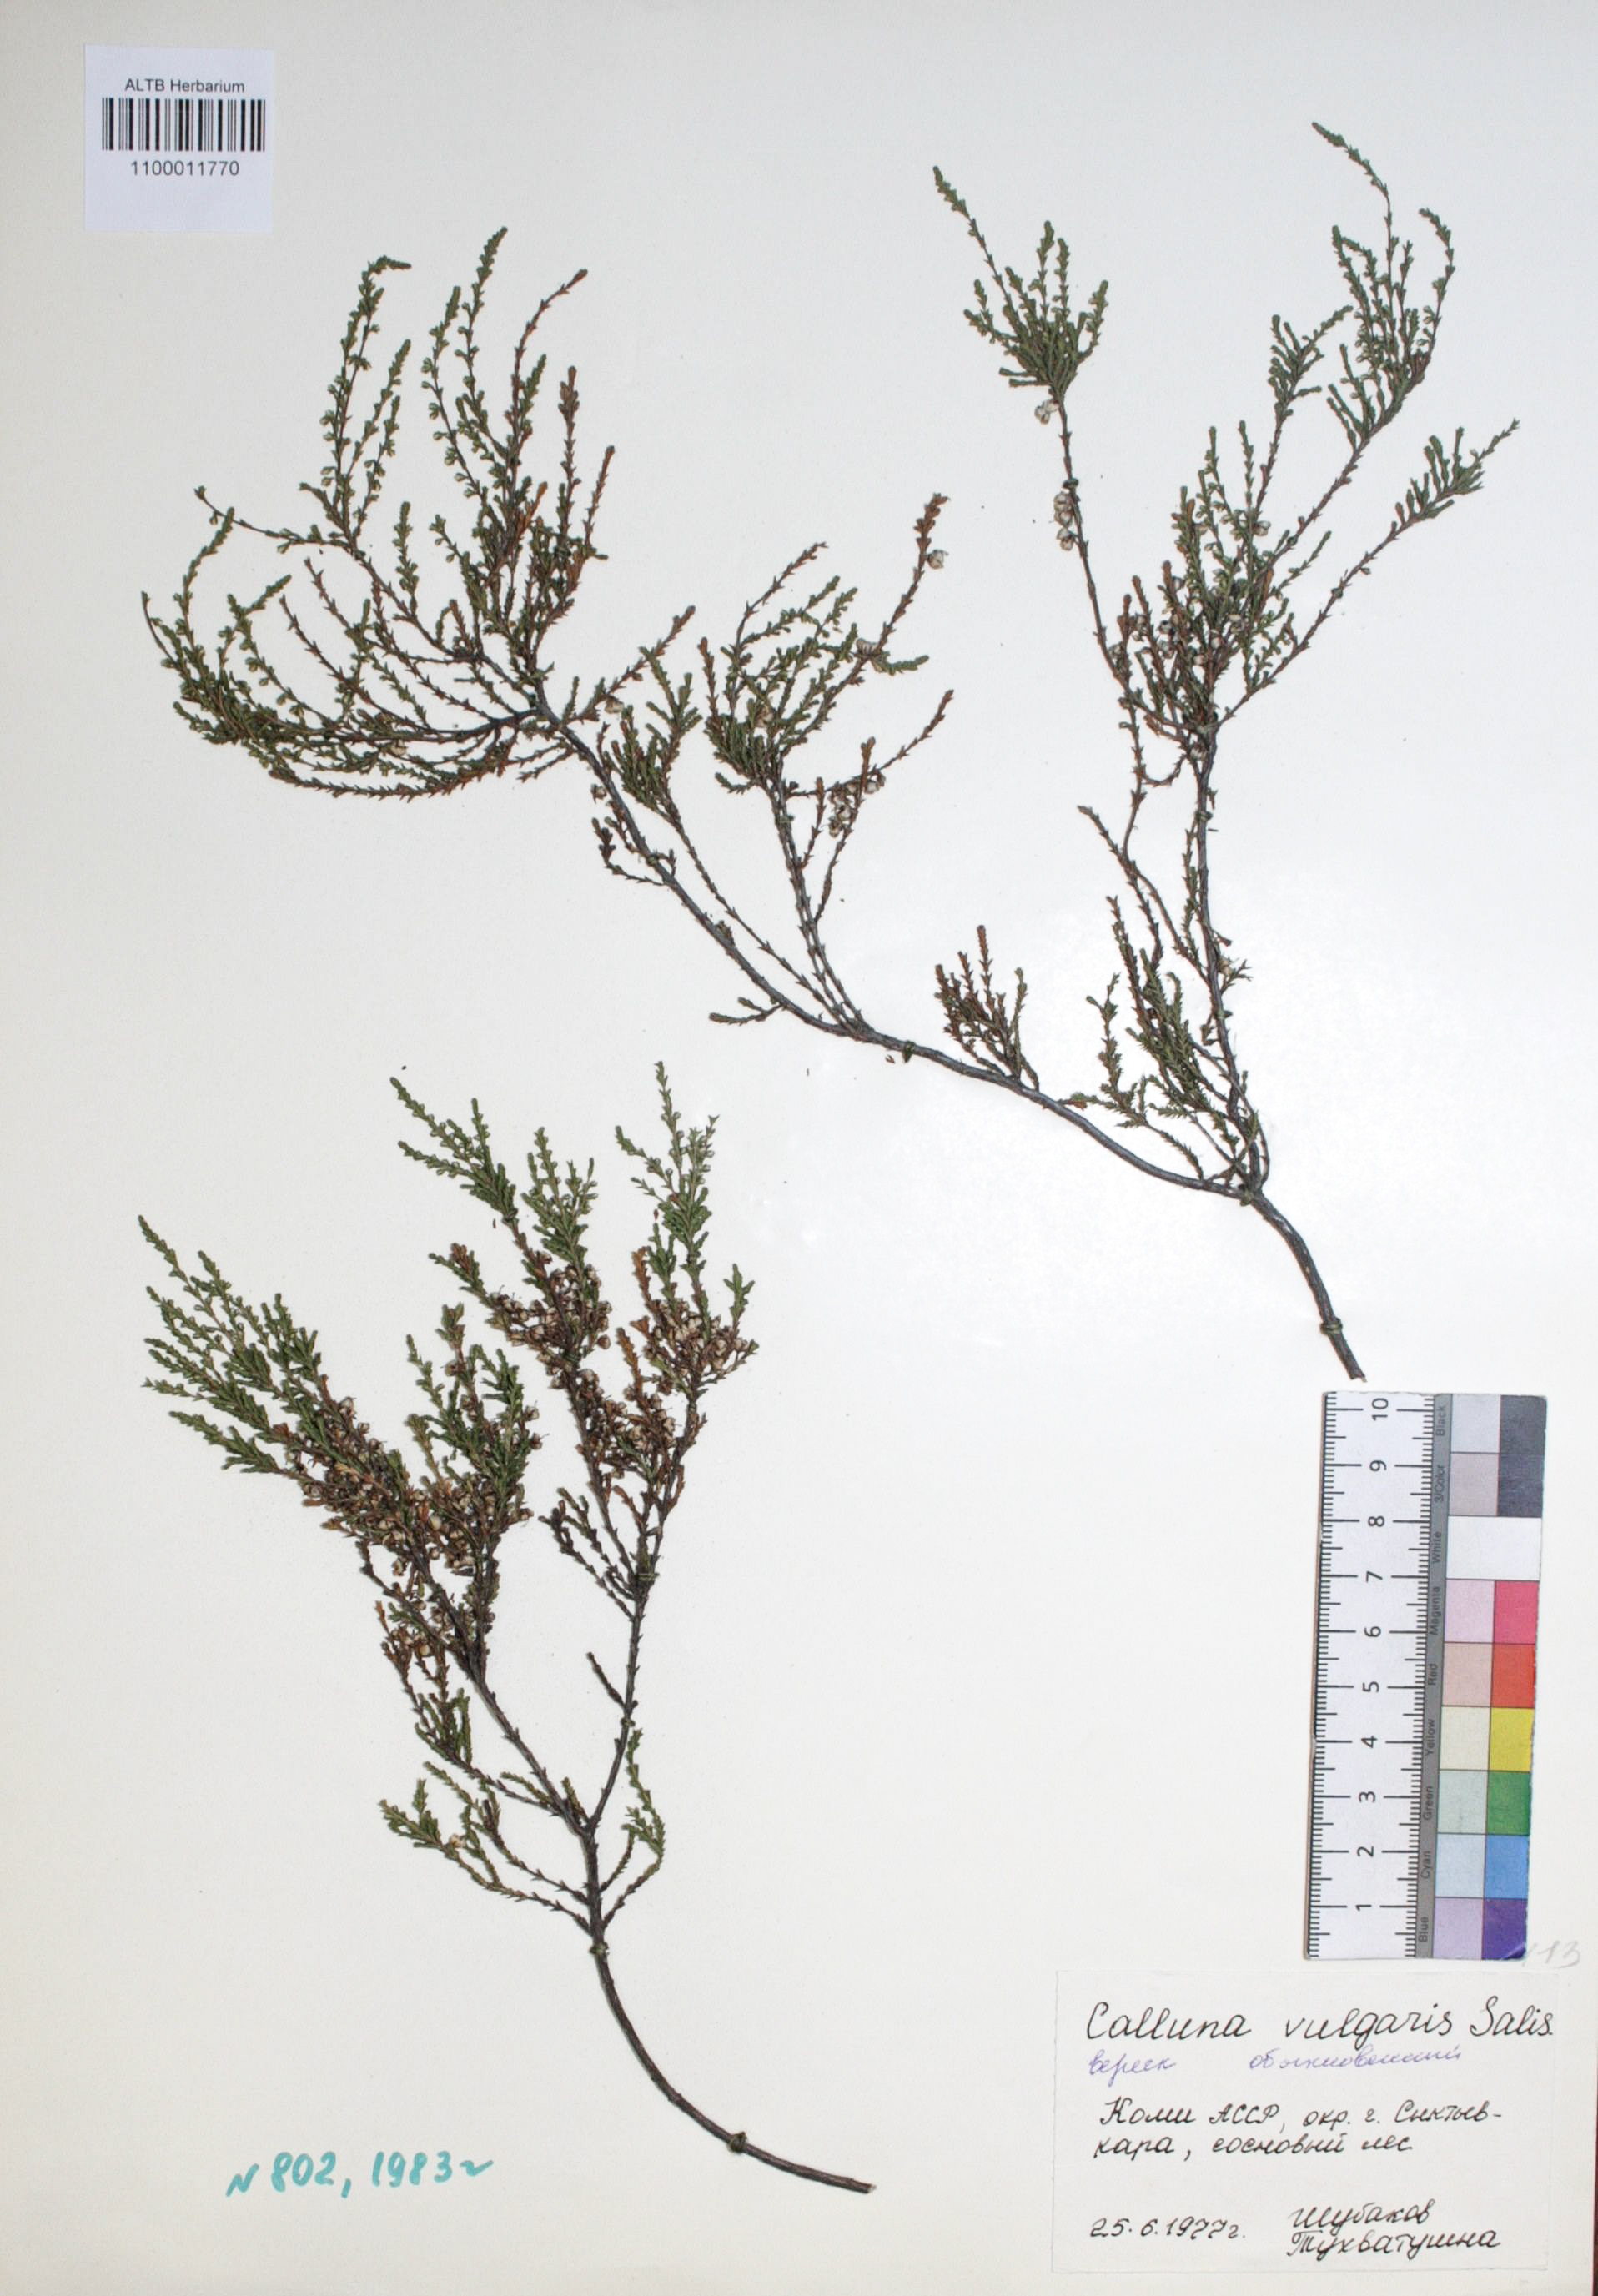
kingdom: Plantae
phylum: Tracheophyta
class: Magnoliopsida
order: Ericales
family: Ericaceae
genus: Calluna
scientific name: Calluna vulgaris
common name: Heather
